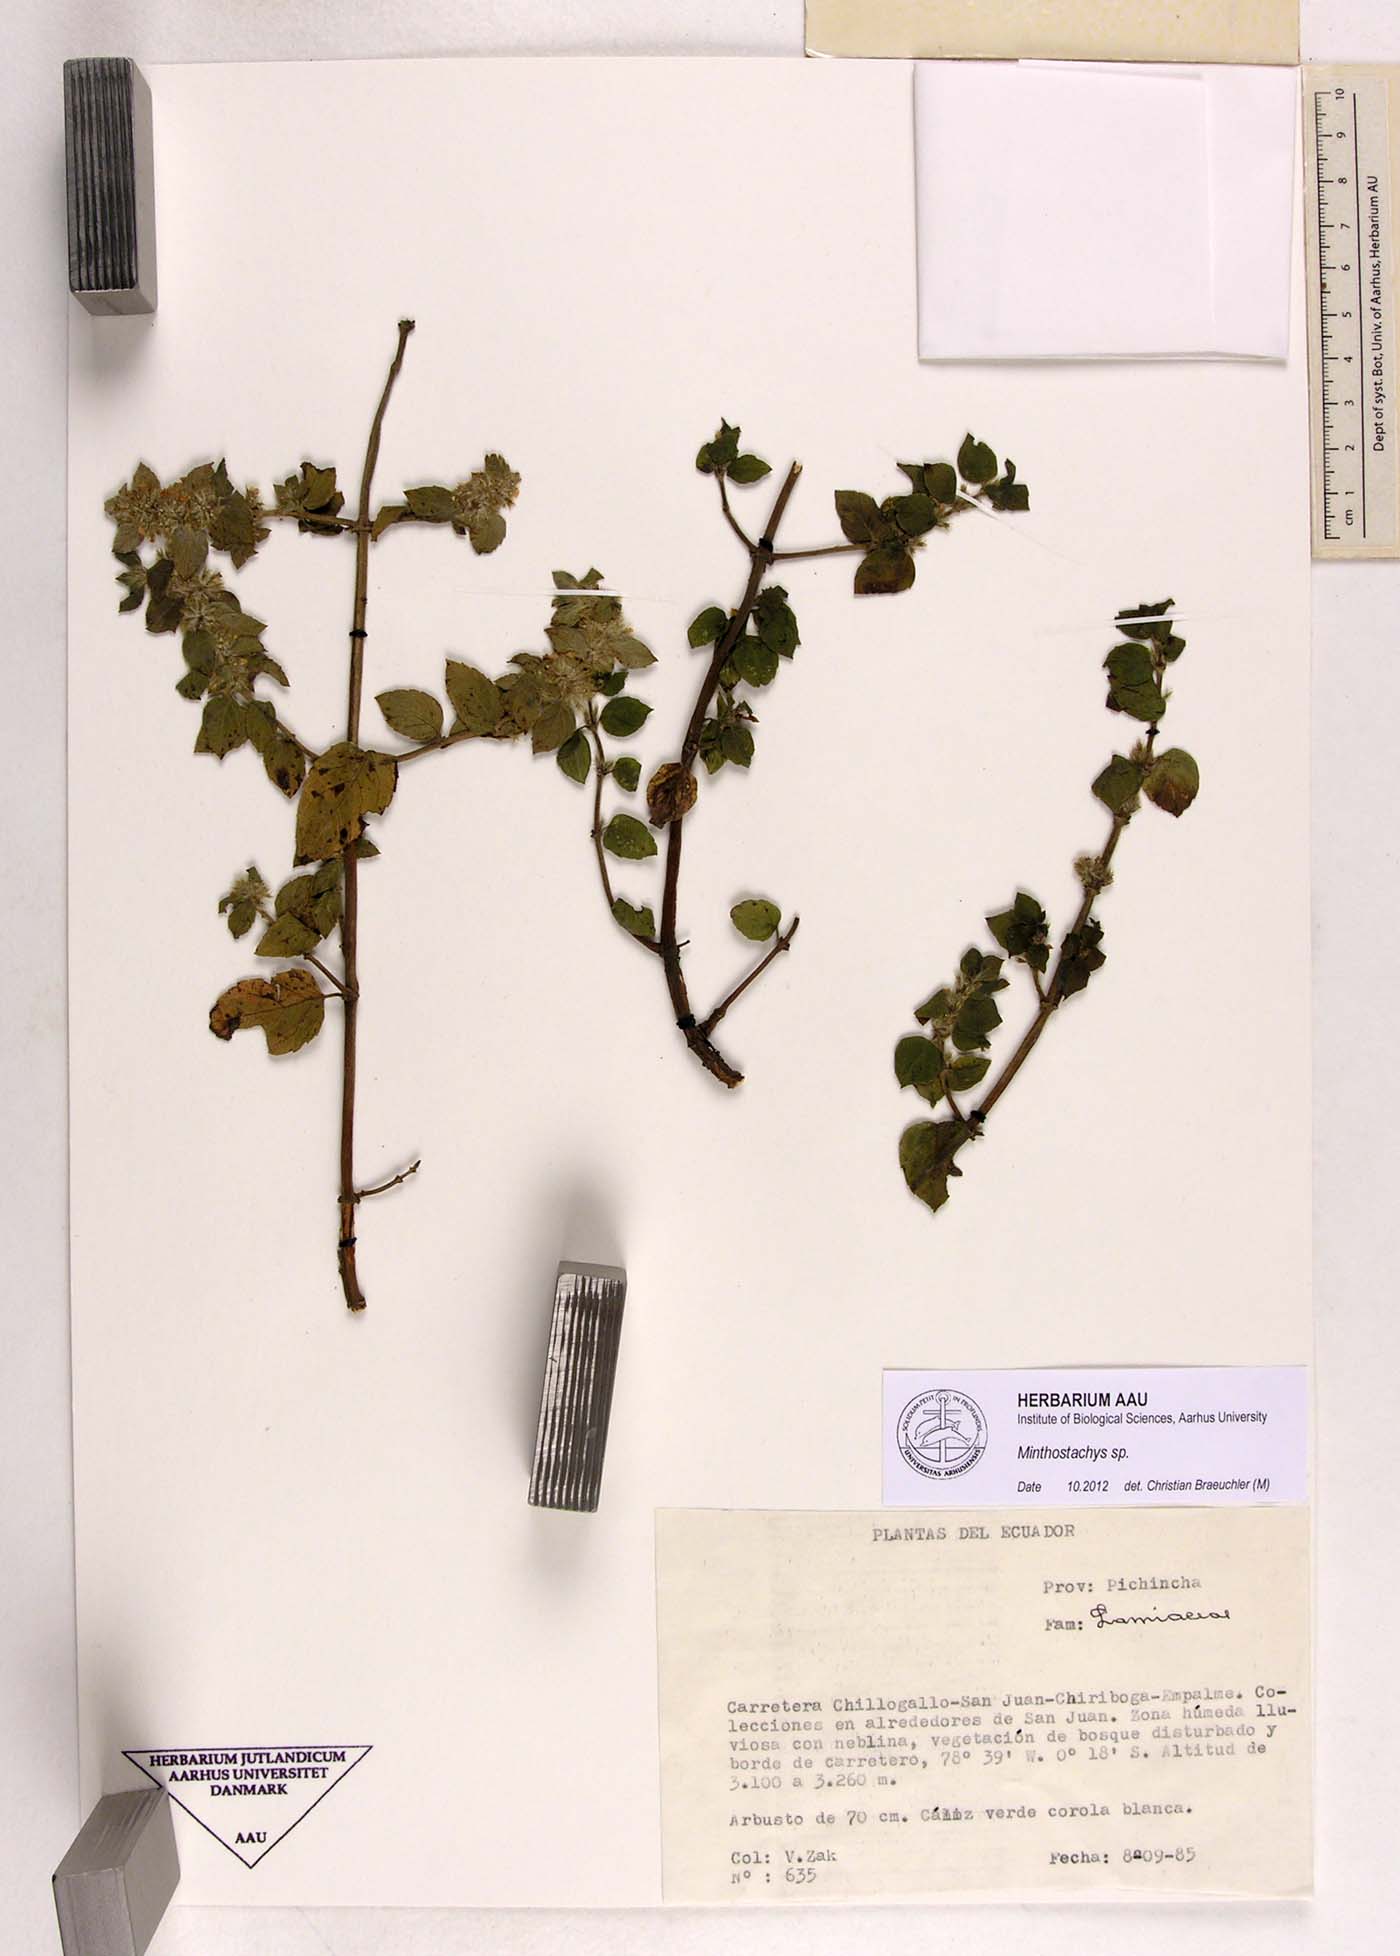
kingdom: Plantae
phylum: Tracheophyta
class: Magnoliopsida
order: Lamiales
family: Lamiaceae
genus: Minthostachys
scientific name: Minthostachys
